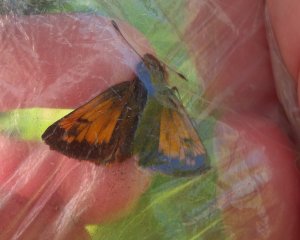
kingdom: Animalia
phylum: Arthropoda
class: Insecta
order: Lepidoptera
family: Hesperiidae
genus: Lon
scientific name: Lon hobomok
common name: Hobomok Skipper
